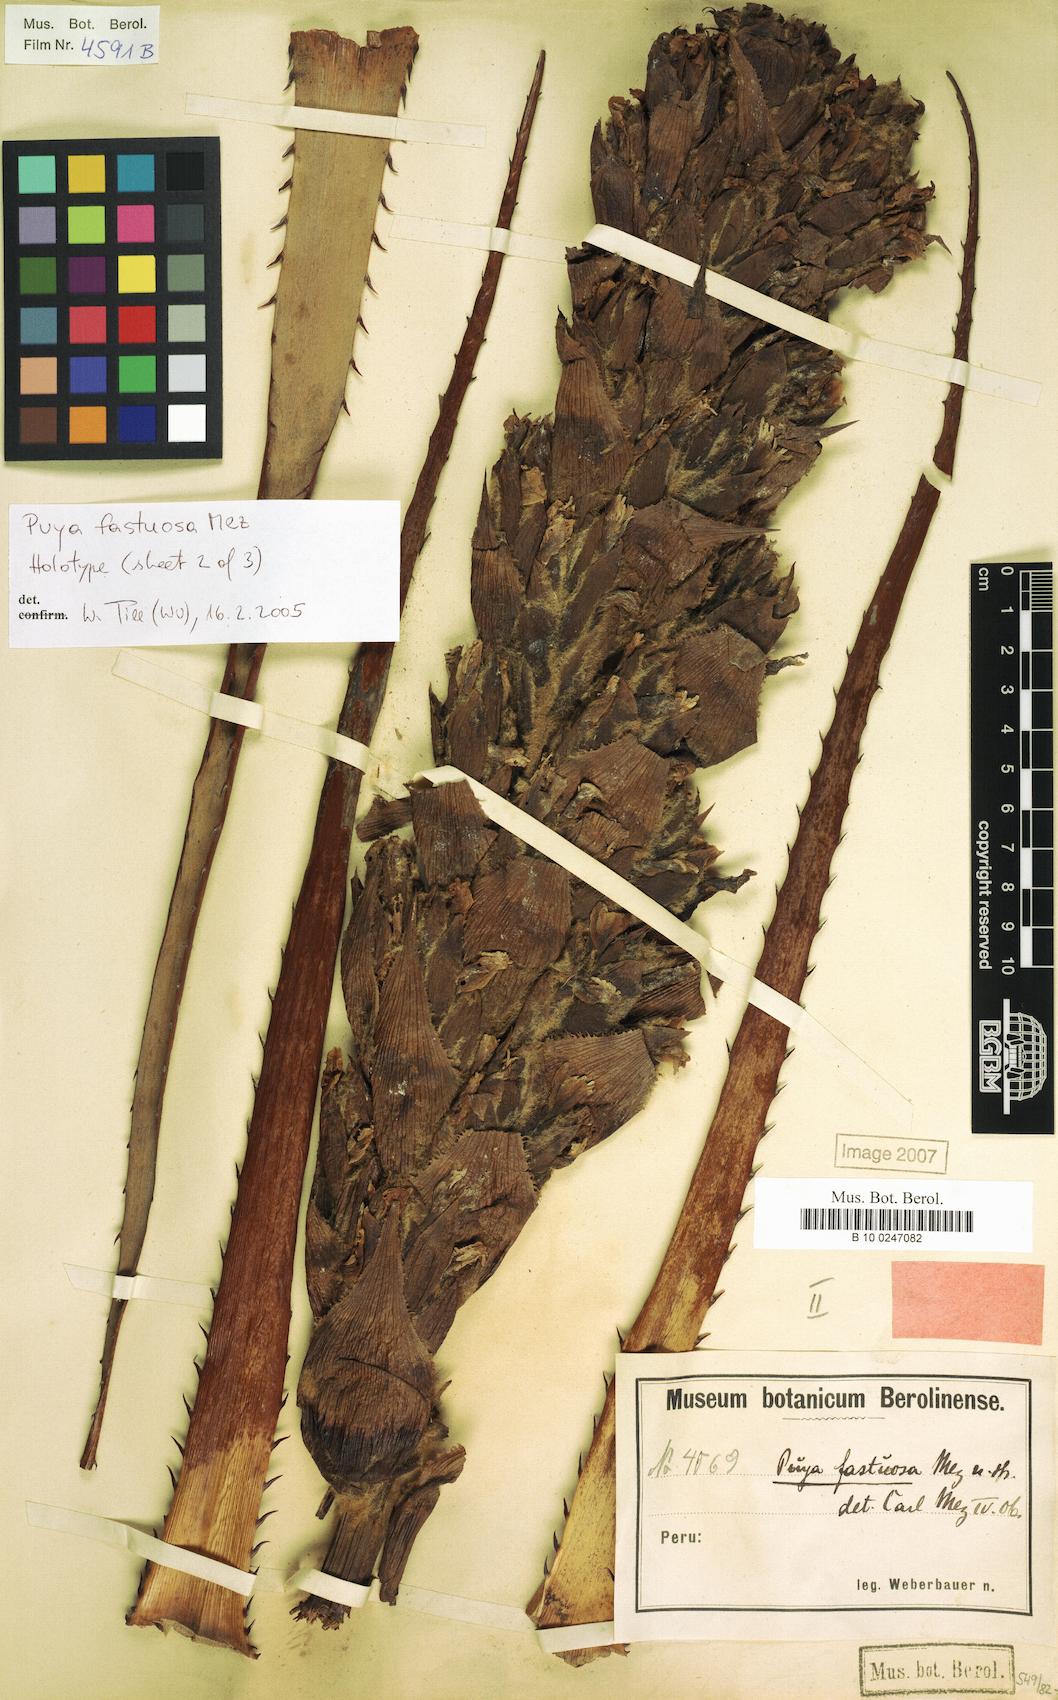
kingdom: Plantae
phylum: Tracheophyta
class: Liliopsida
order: Poales
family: Bromeliaceae
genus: Puya
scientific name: Puya fastuosa
